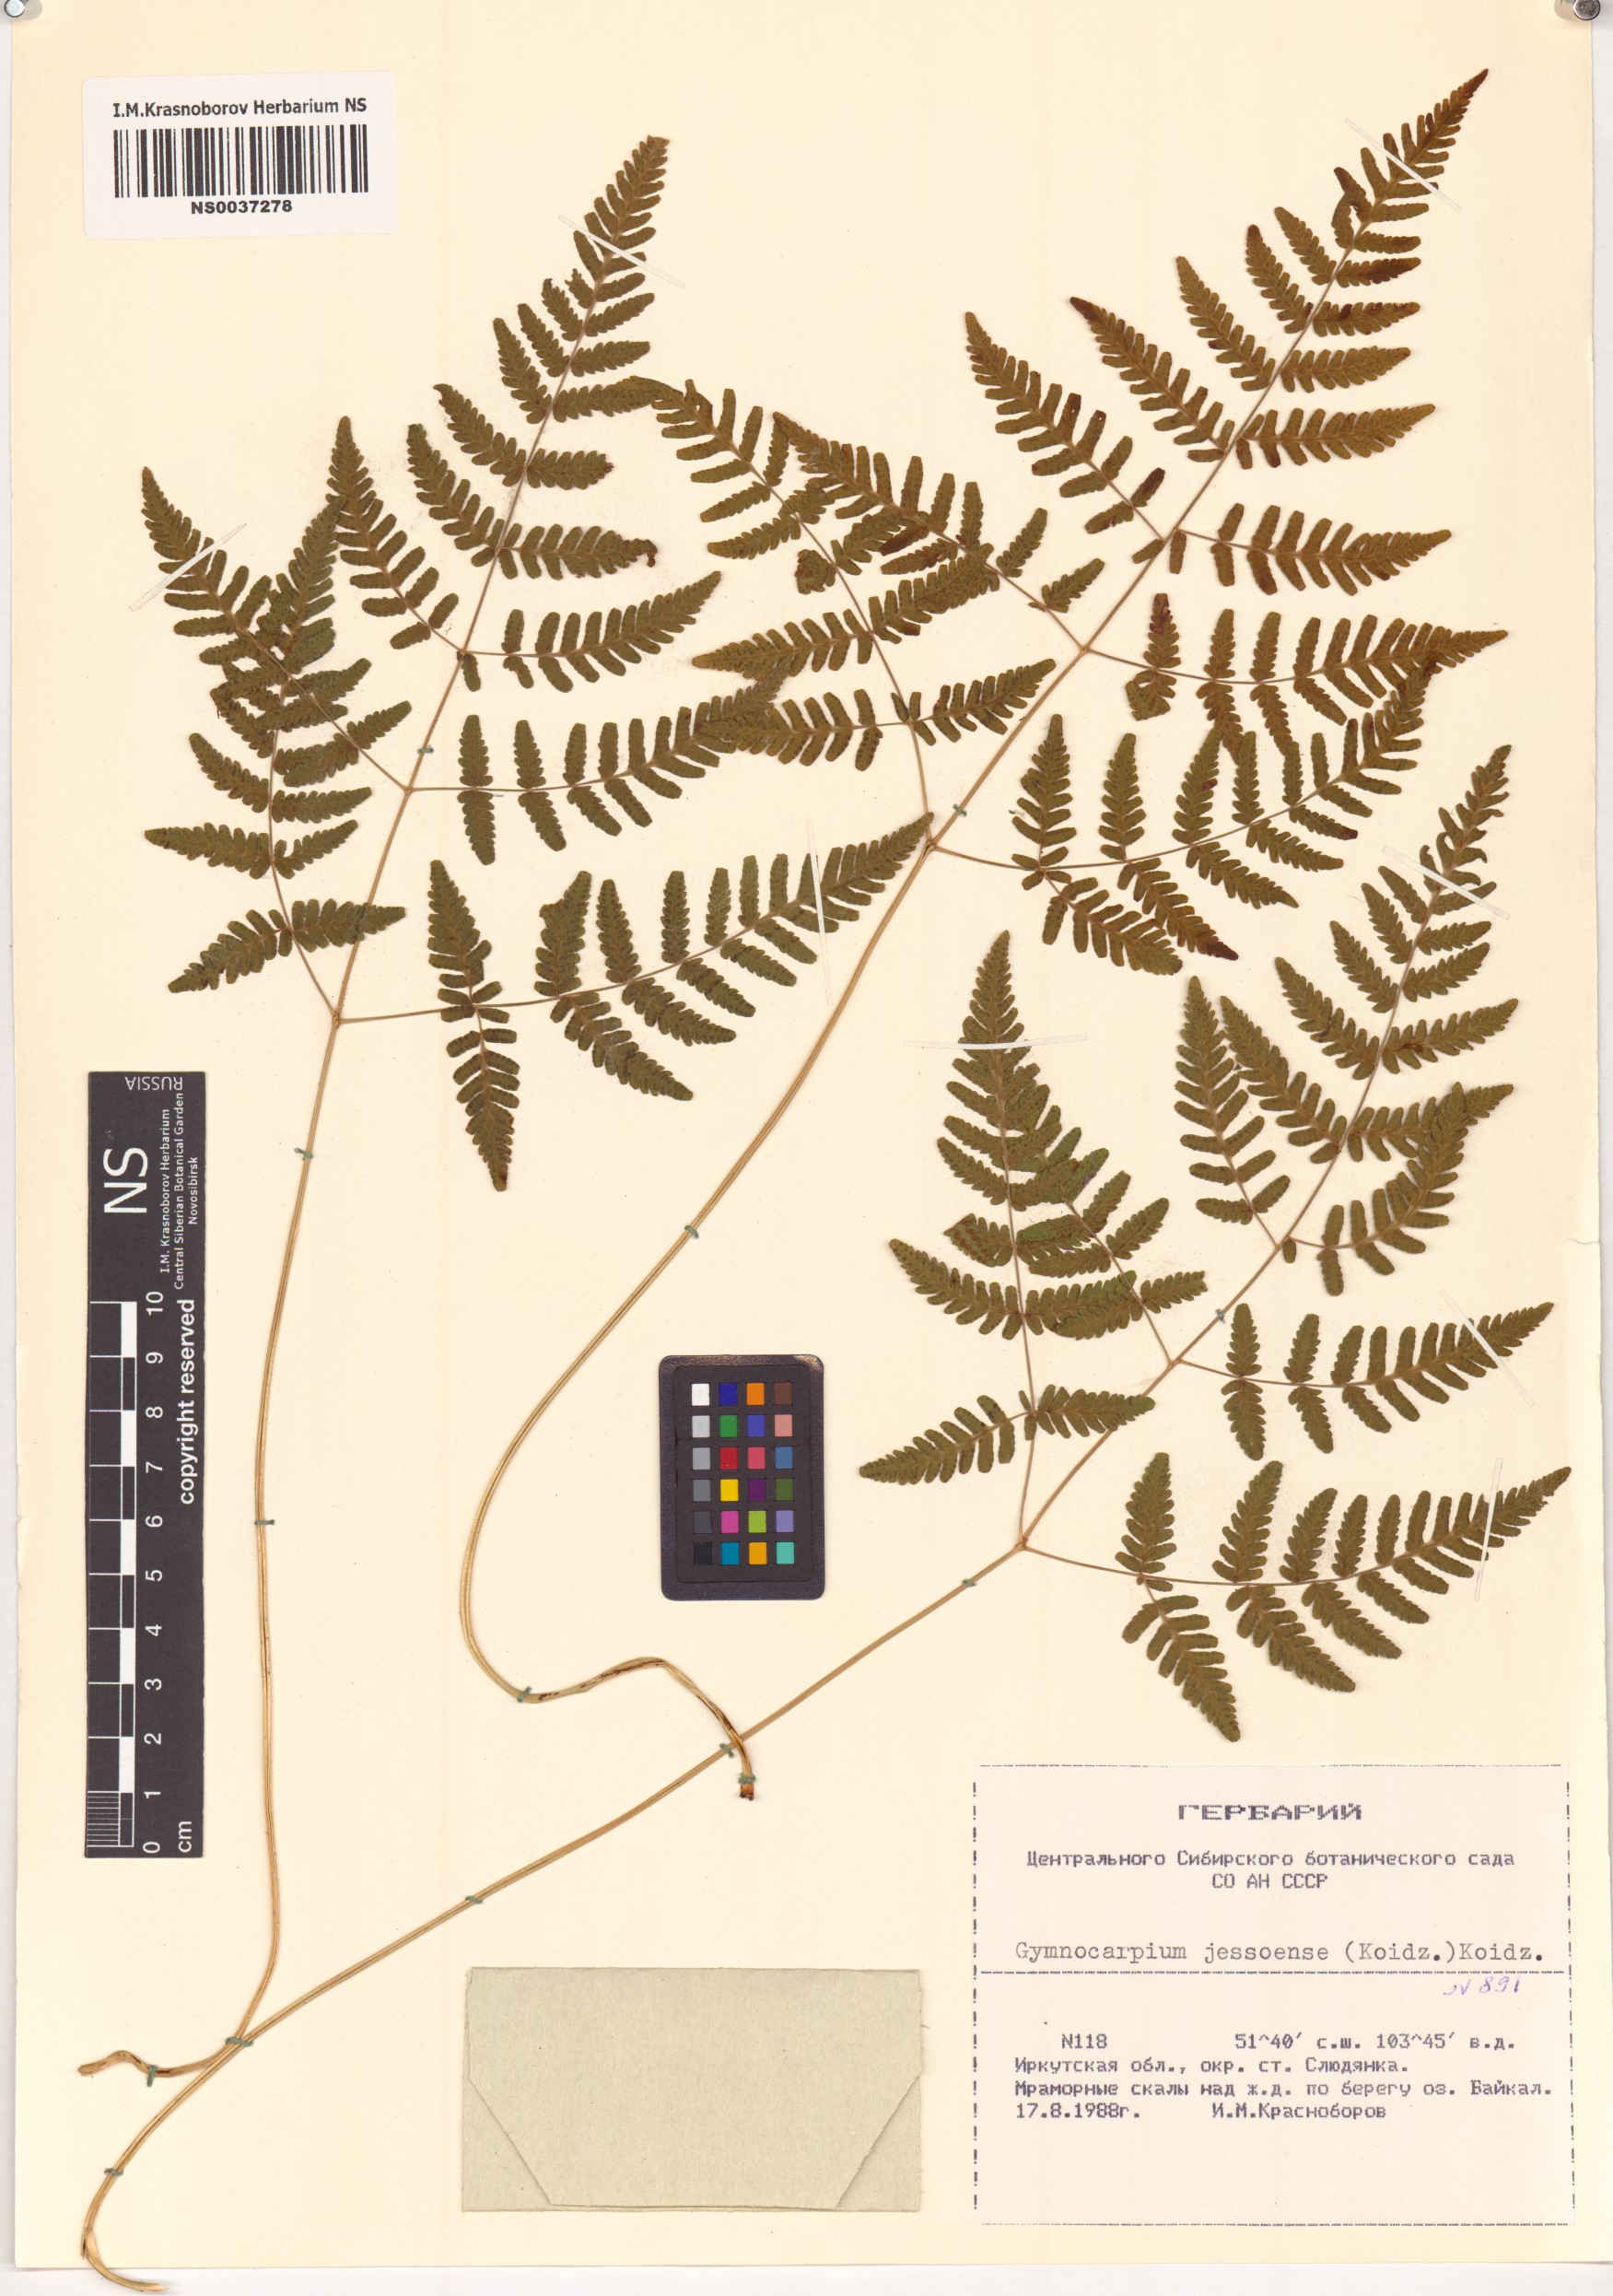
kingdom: Plantae
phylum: Tracheophyta
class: Polypodiopsida
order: Polypodiales
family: Cystopteridaceae
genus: Gymnocarpium
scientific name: Gymnocarpium jessoense
